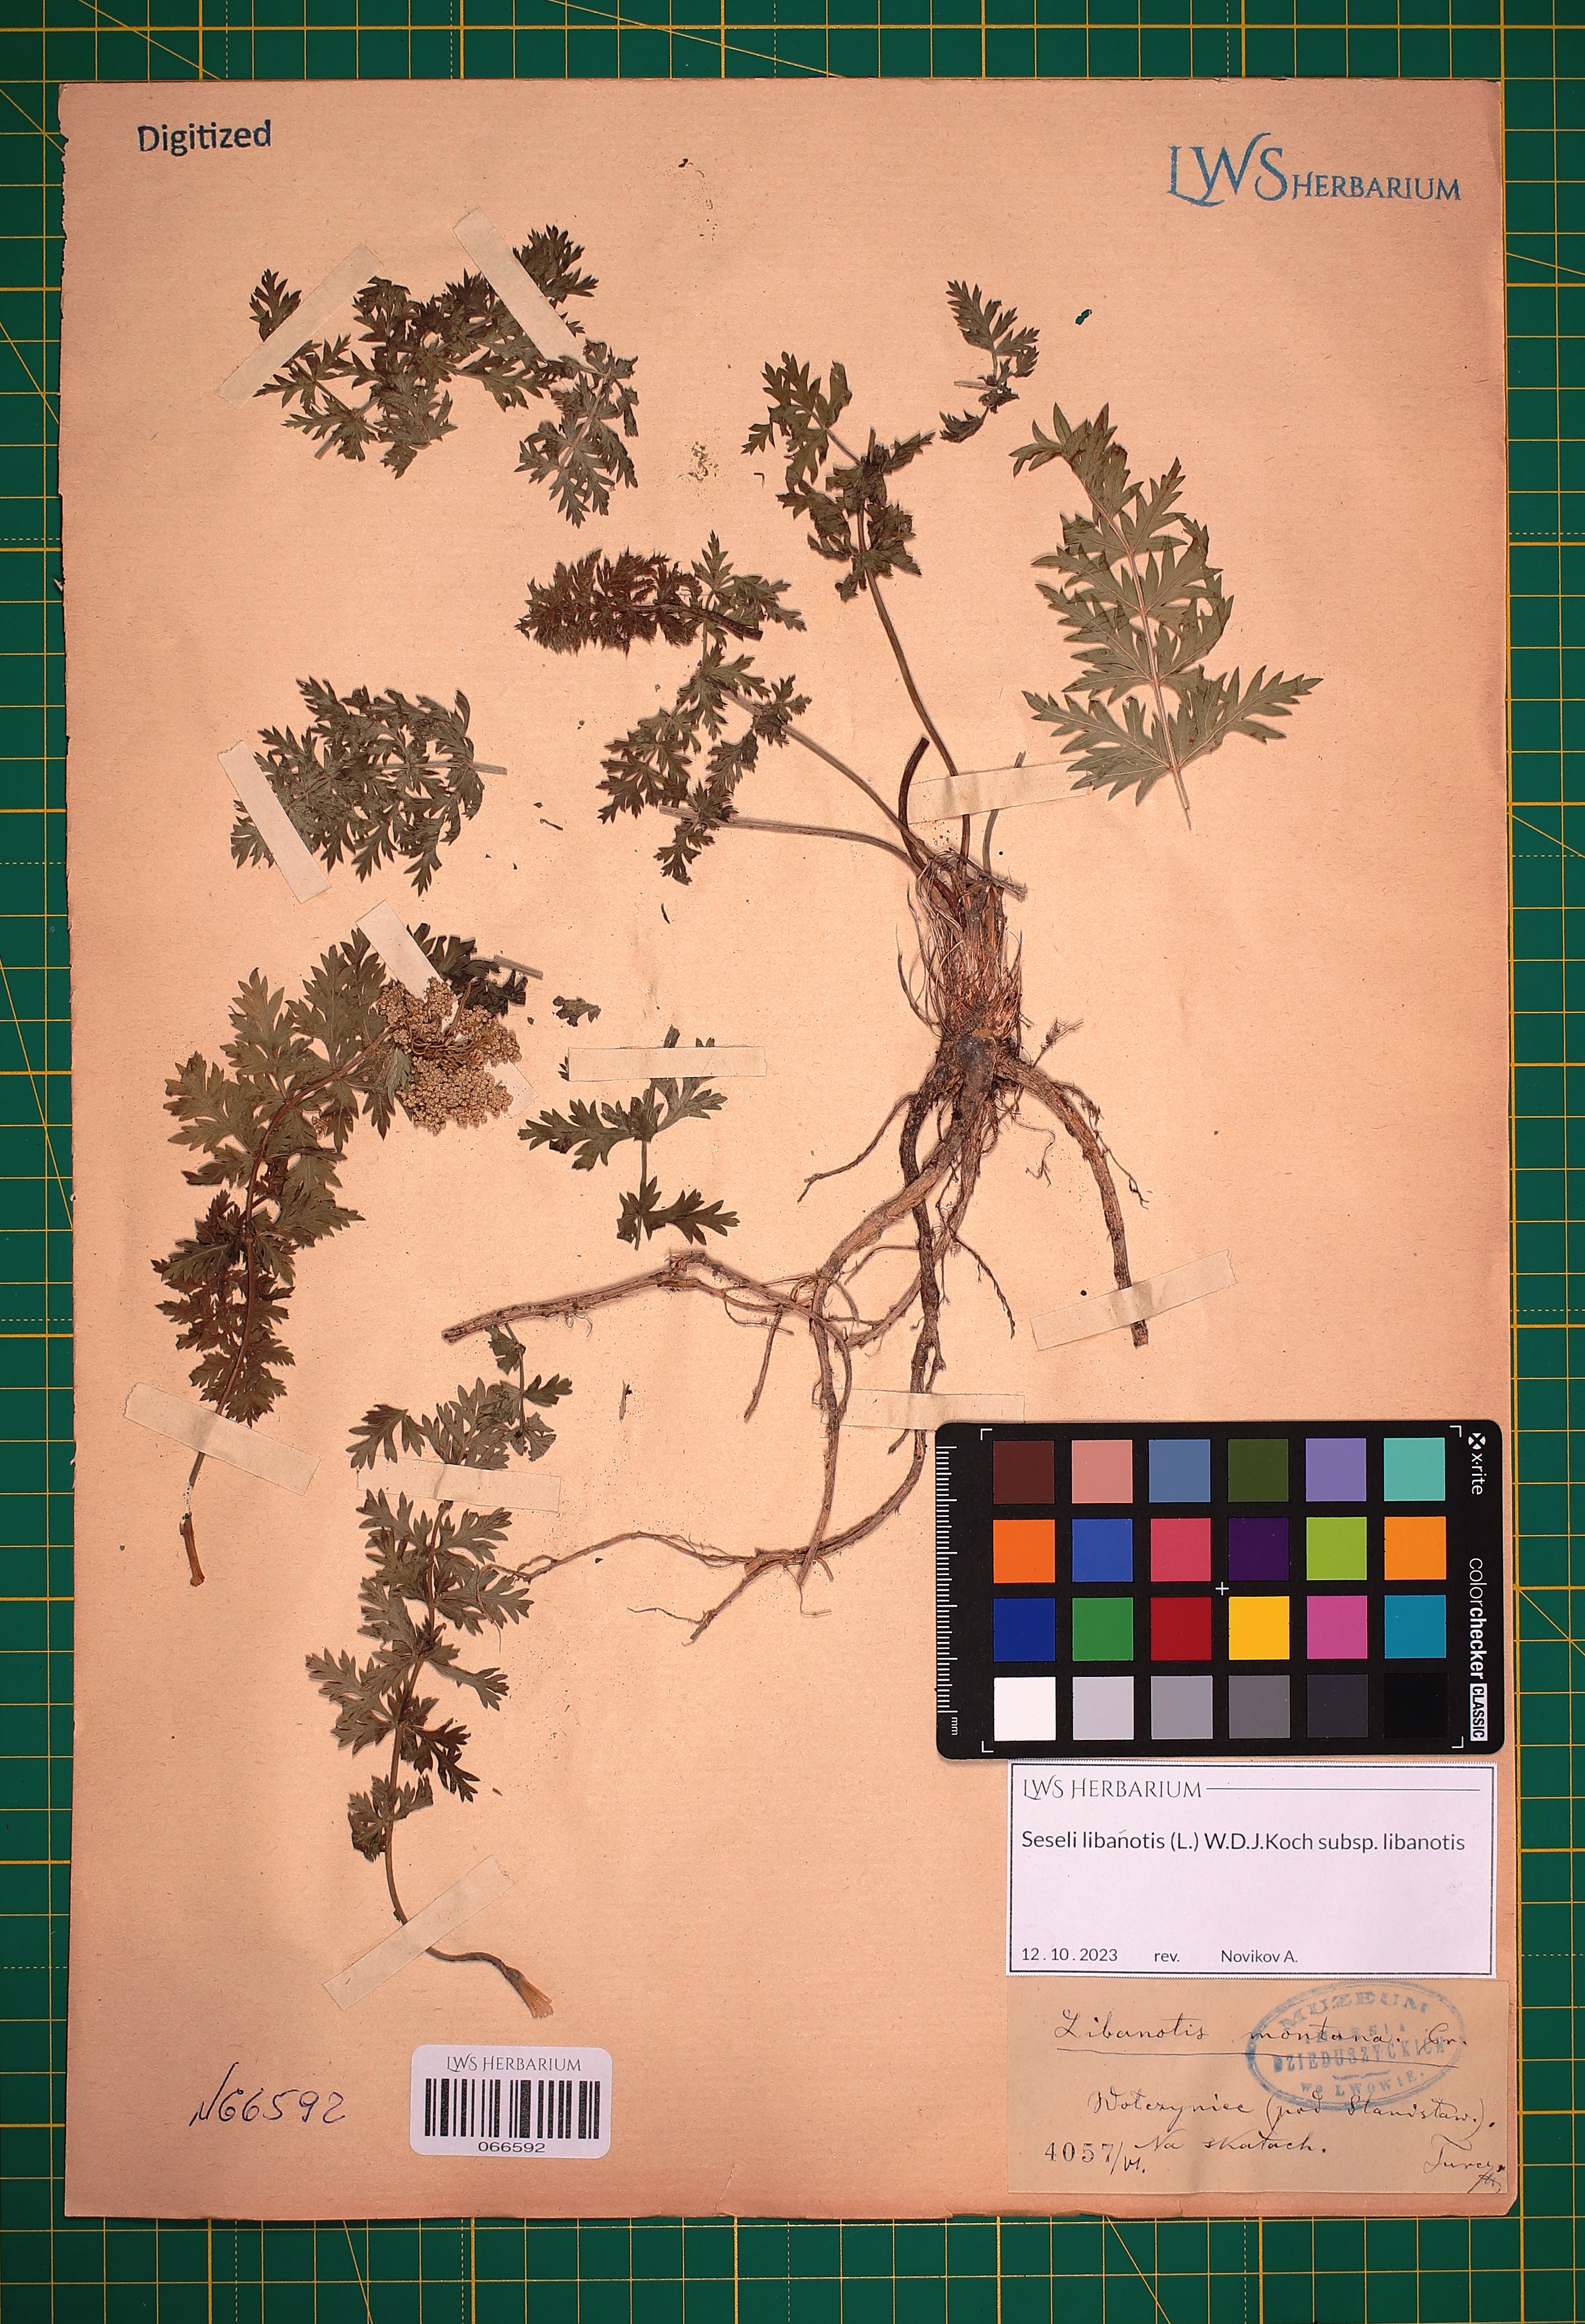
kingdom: Plantae
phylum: Tracheophyta
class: Magnoliopsida
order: Apiales
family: Apiaceae
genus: Seseli
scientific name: Seseli libanotis
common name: Mooncarrot
